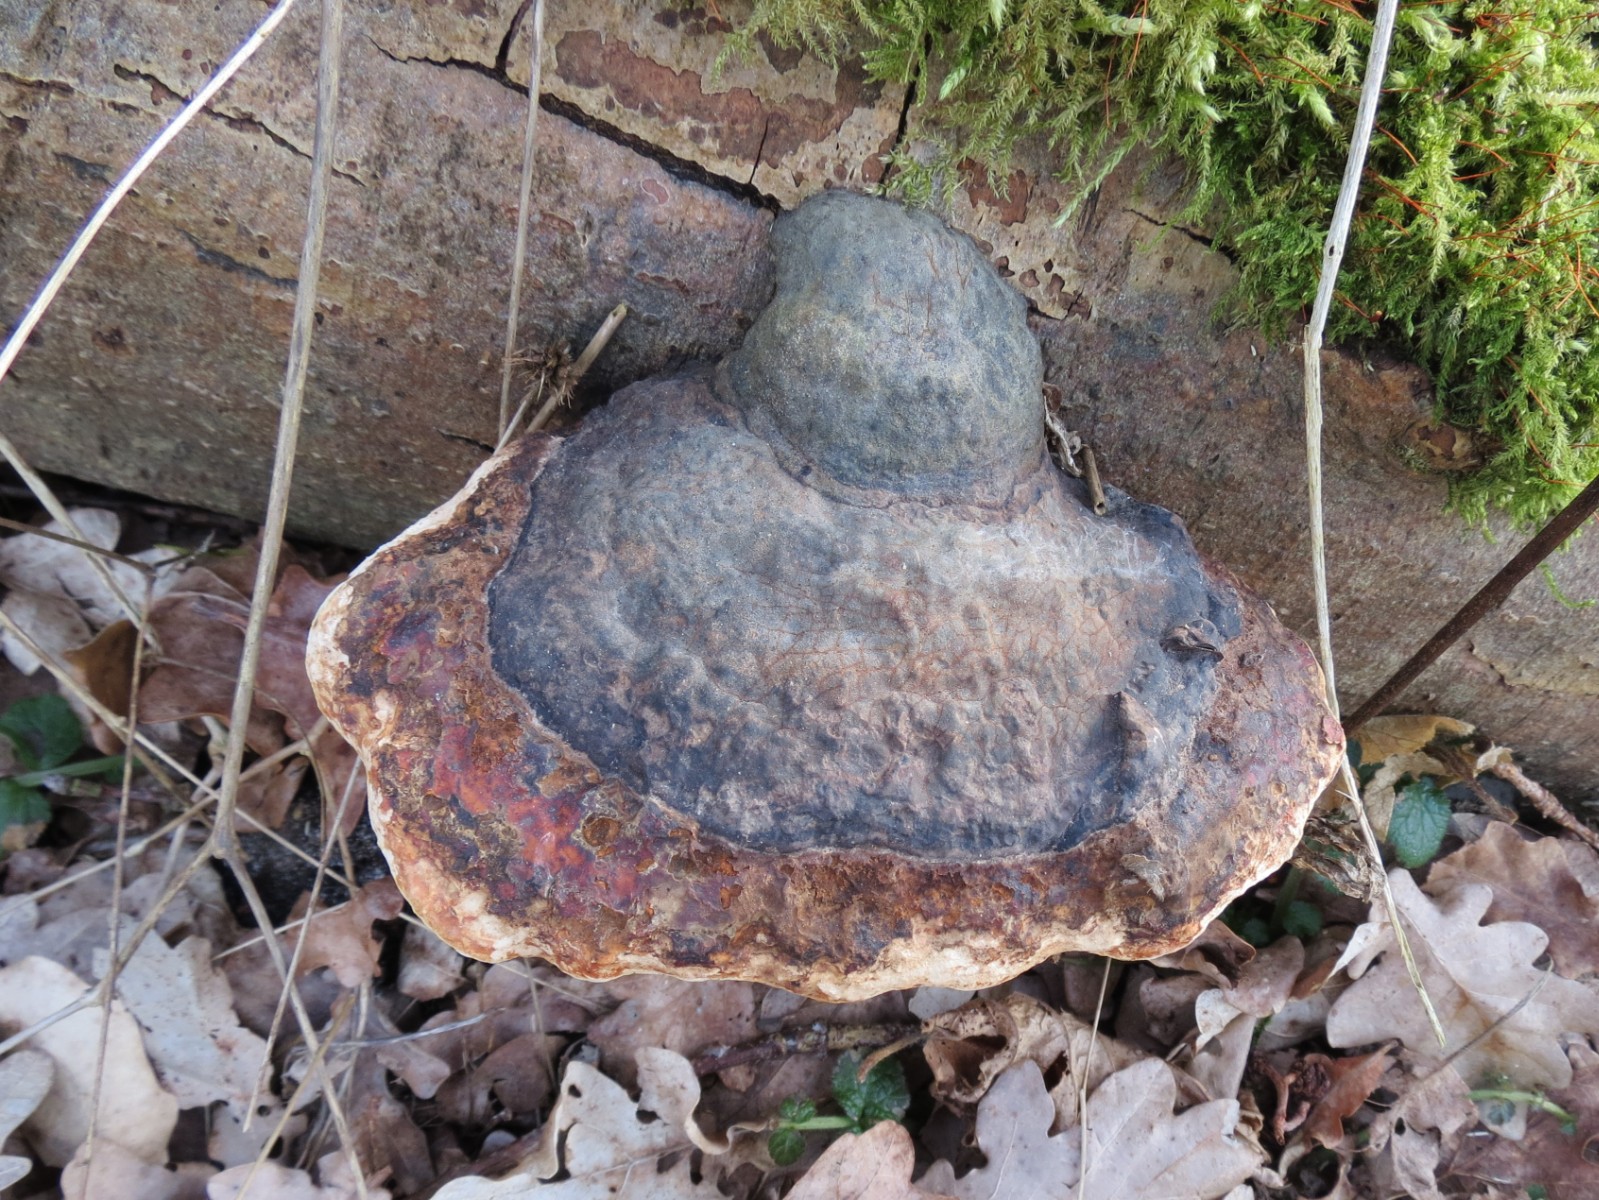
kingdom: Fungi
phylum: Basidiomycota
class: Agaricomycetes
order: Polyporales
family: Fomitopsidaceae
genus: Fomitopsis
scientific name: Fomitopsis pinicola
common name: randbæltet hovporesvamp
